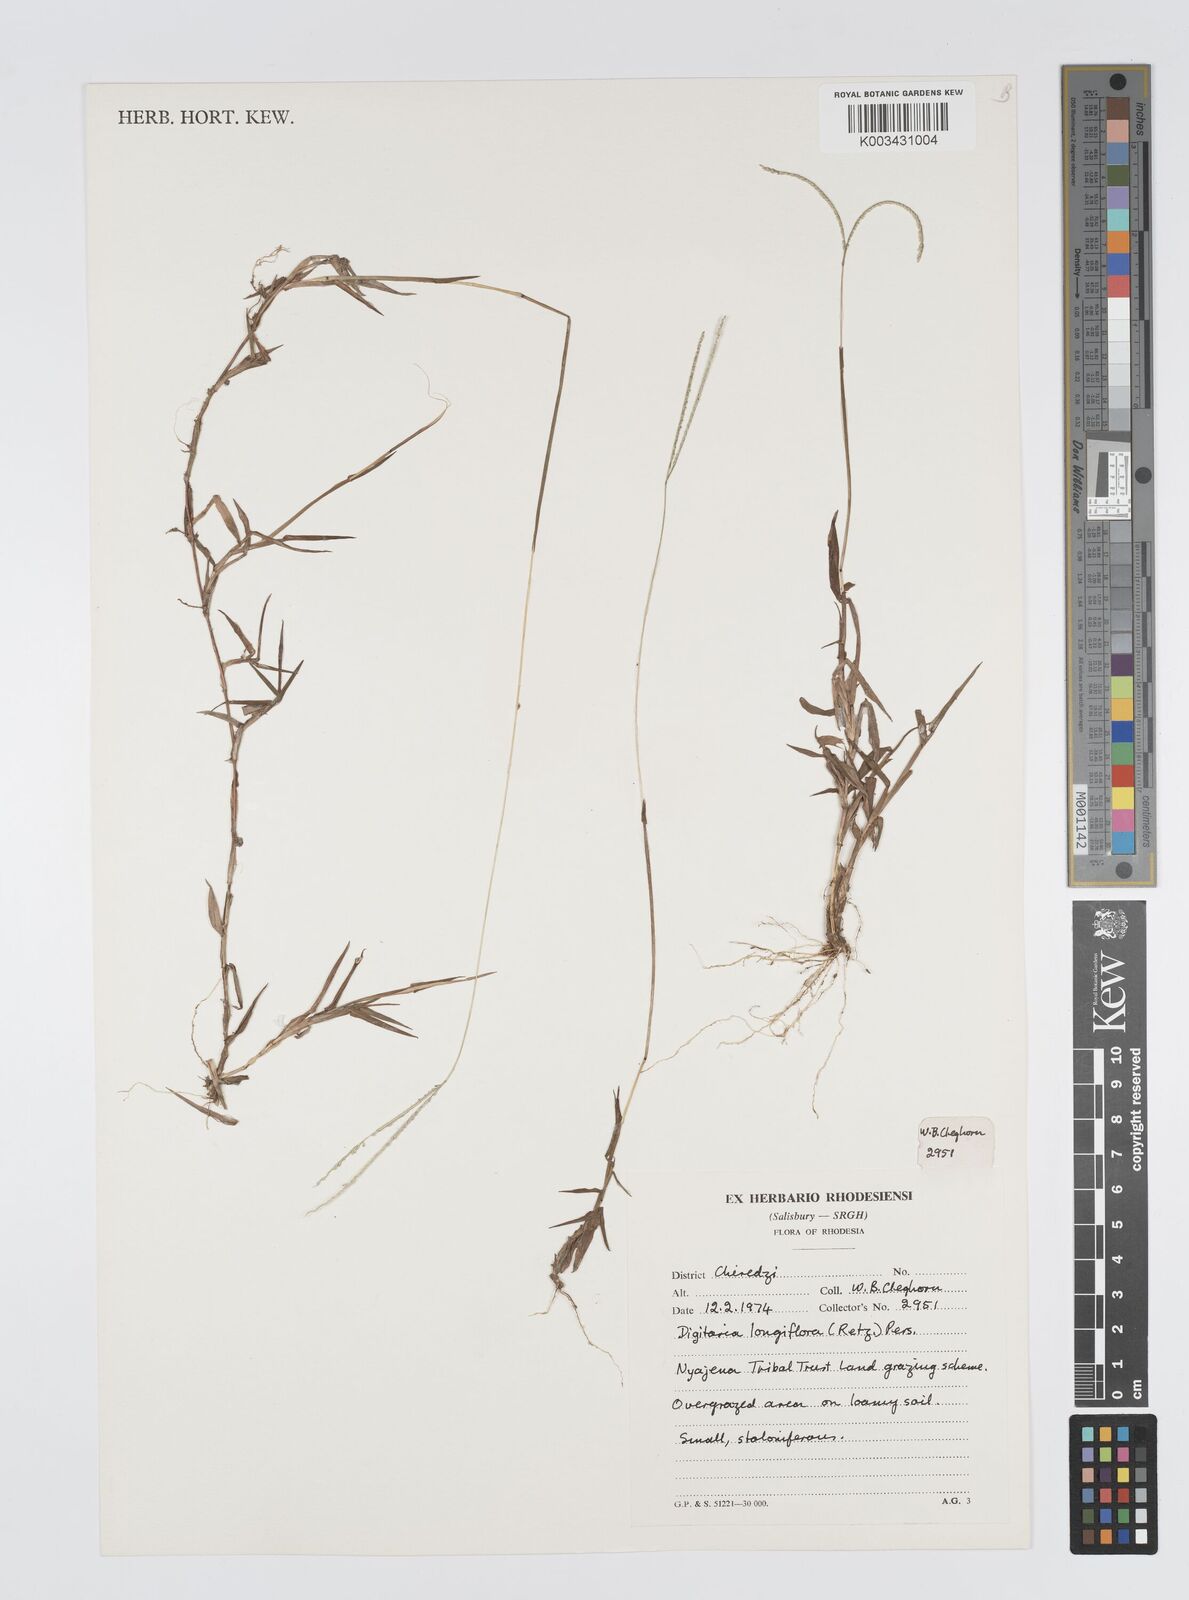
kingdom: Plantae
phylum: Tracheophyta
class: Liliopsida
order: Poales
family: Poaceae
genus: Digitaria
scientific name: Digitaria longiflora
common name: Wire crabgrass
